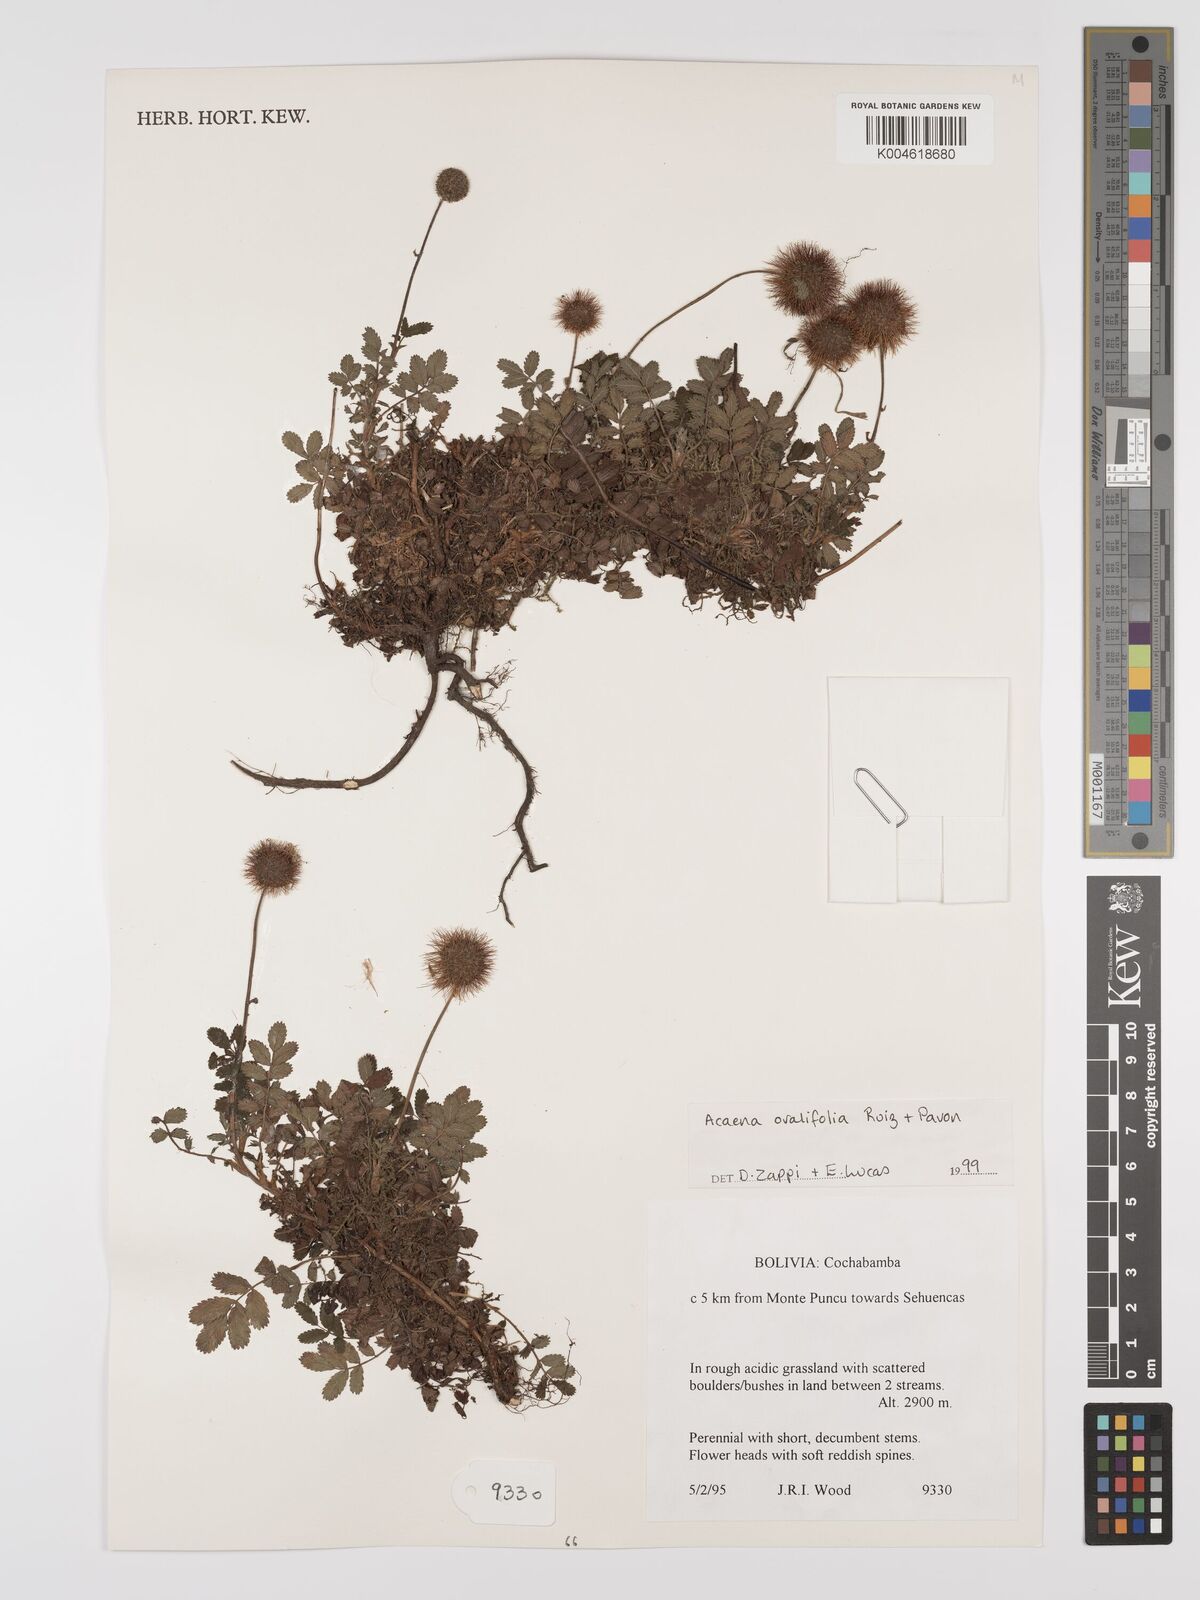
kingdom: Plantae
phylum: Tracheophyta
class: Magnoliopsida
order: Rosales
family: Rosaceae
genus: Acaena
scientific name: Acaena ovalifolia
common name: Two-spined acaena
